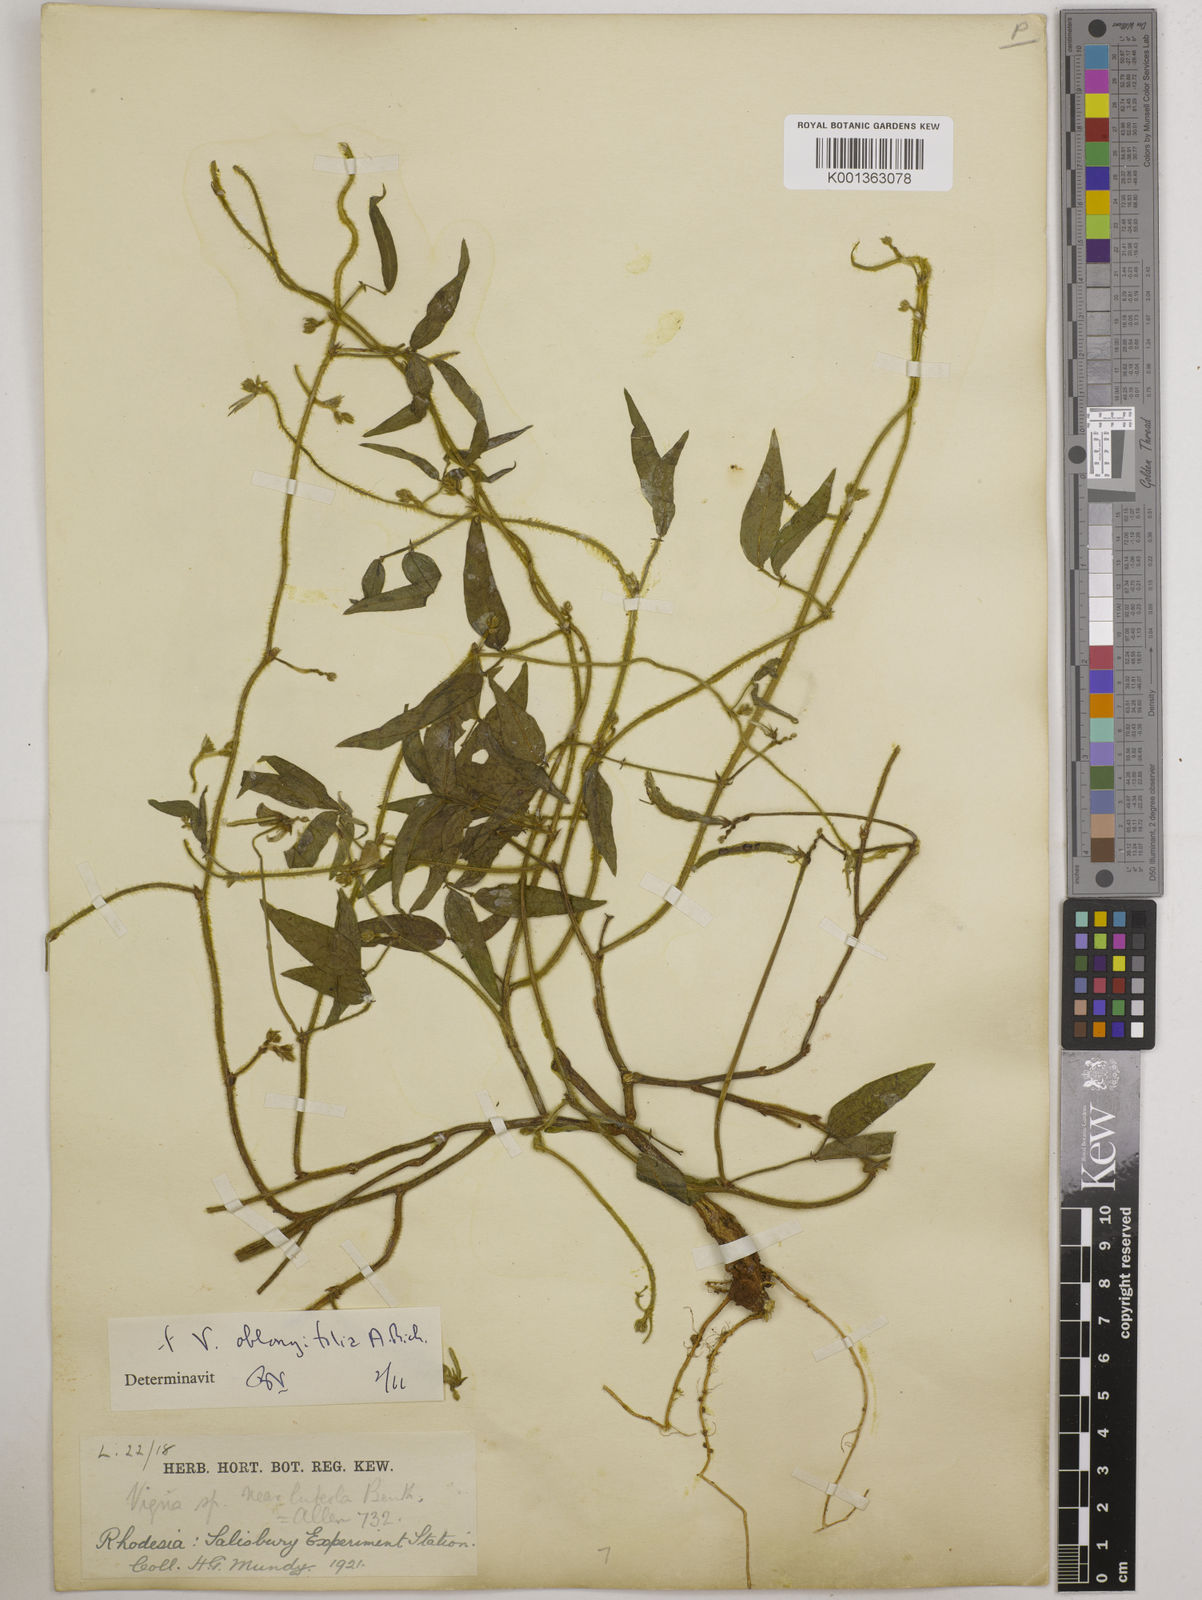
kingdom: Plantae
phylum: Tracheophyta
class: Magnoliopsida
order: Fabales
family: Fabaceae
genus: Vigna
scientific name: Vigna oblongifolia
